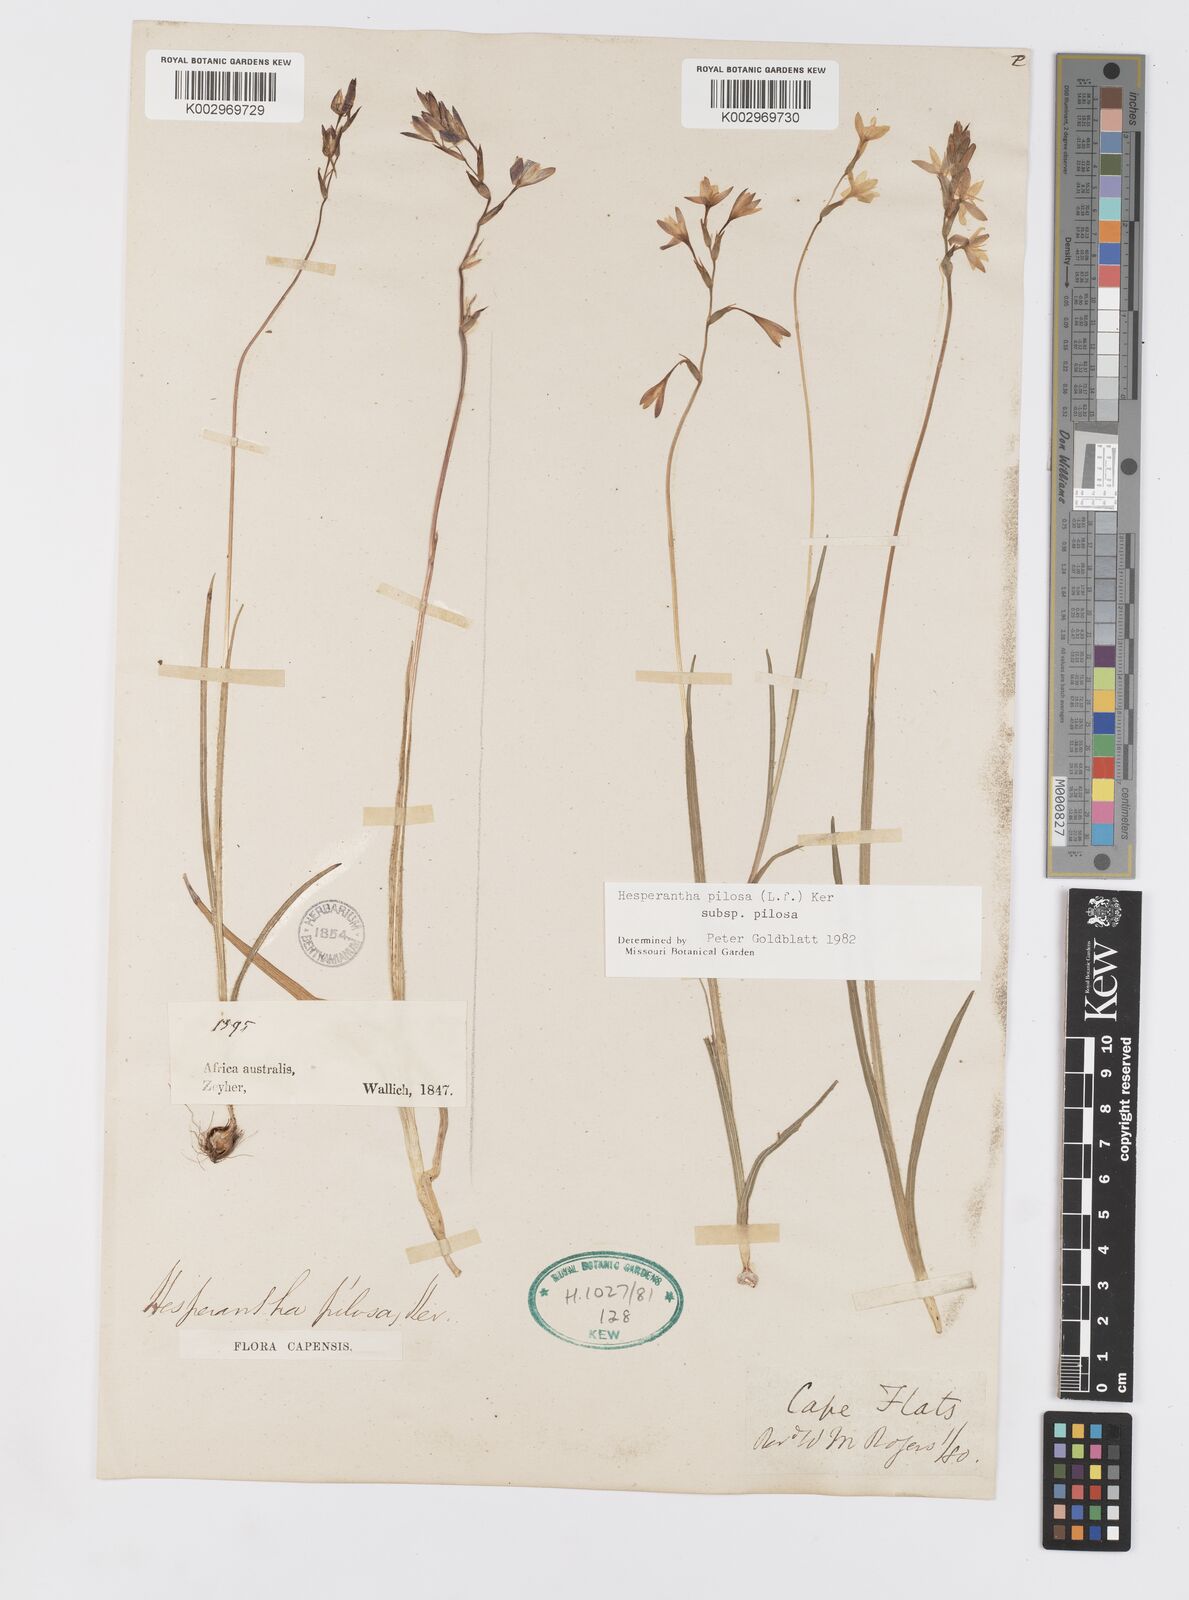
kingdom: Plantae
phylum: Tracheophyta
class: Liliopsida
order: Asparagales
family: Iridaceae
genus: Hesperantha
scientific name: Hesperantha pilosa
